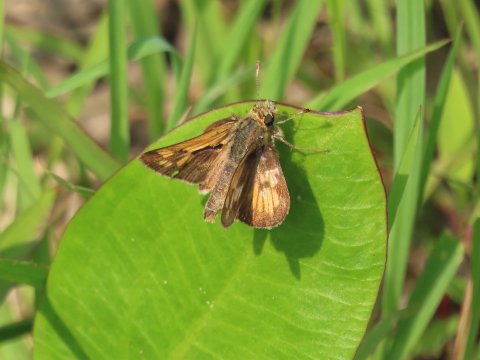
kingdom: Animalia
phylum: Arthropoda
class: Insecta
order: Lepidoptera
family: Hesperiidae
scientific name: Hesperiidae
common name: Skippers
